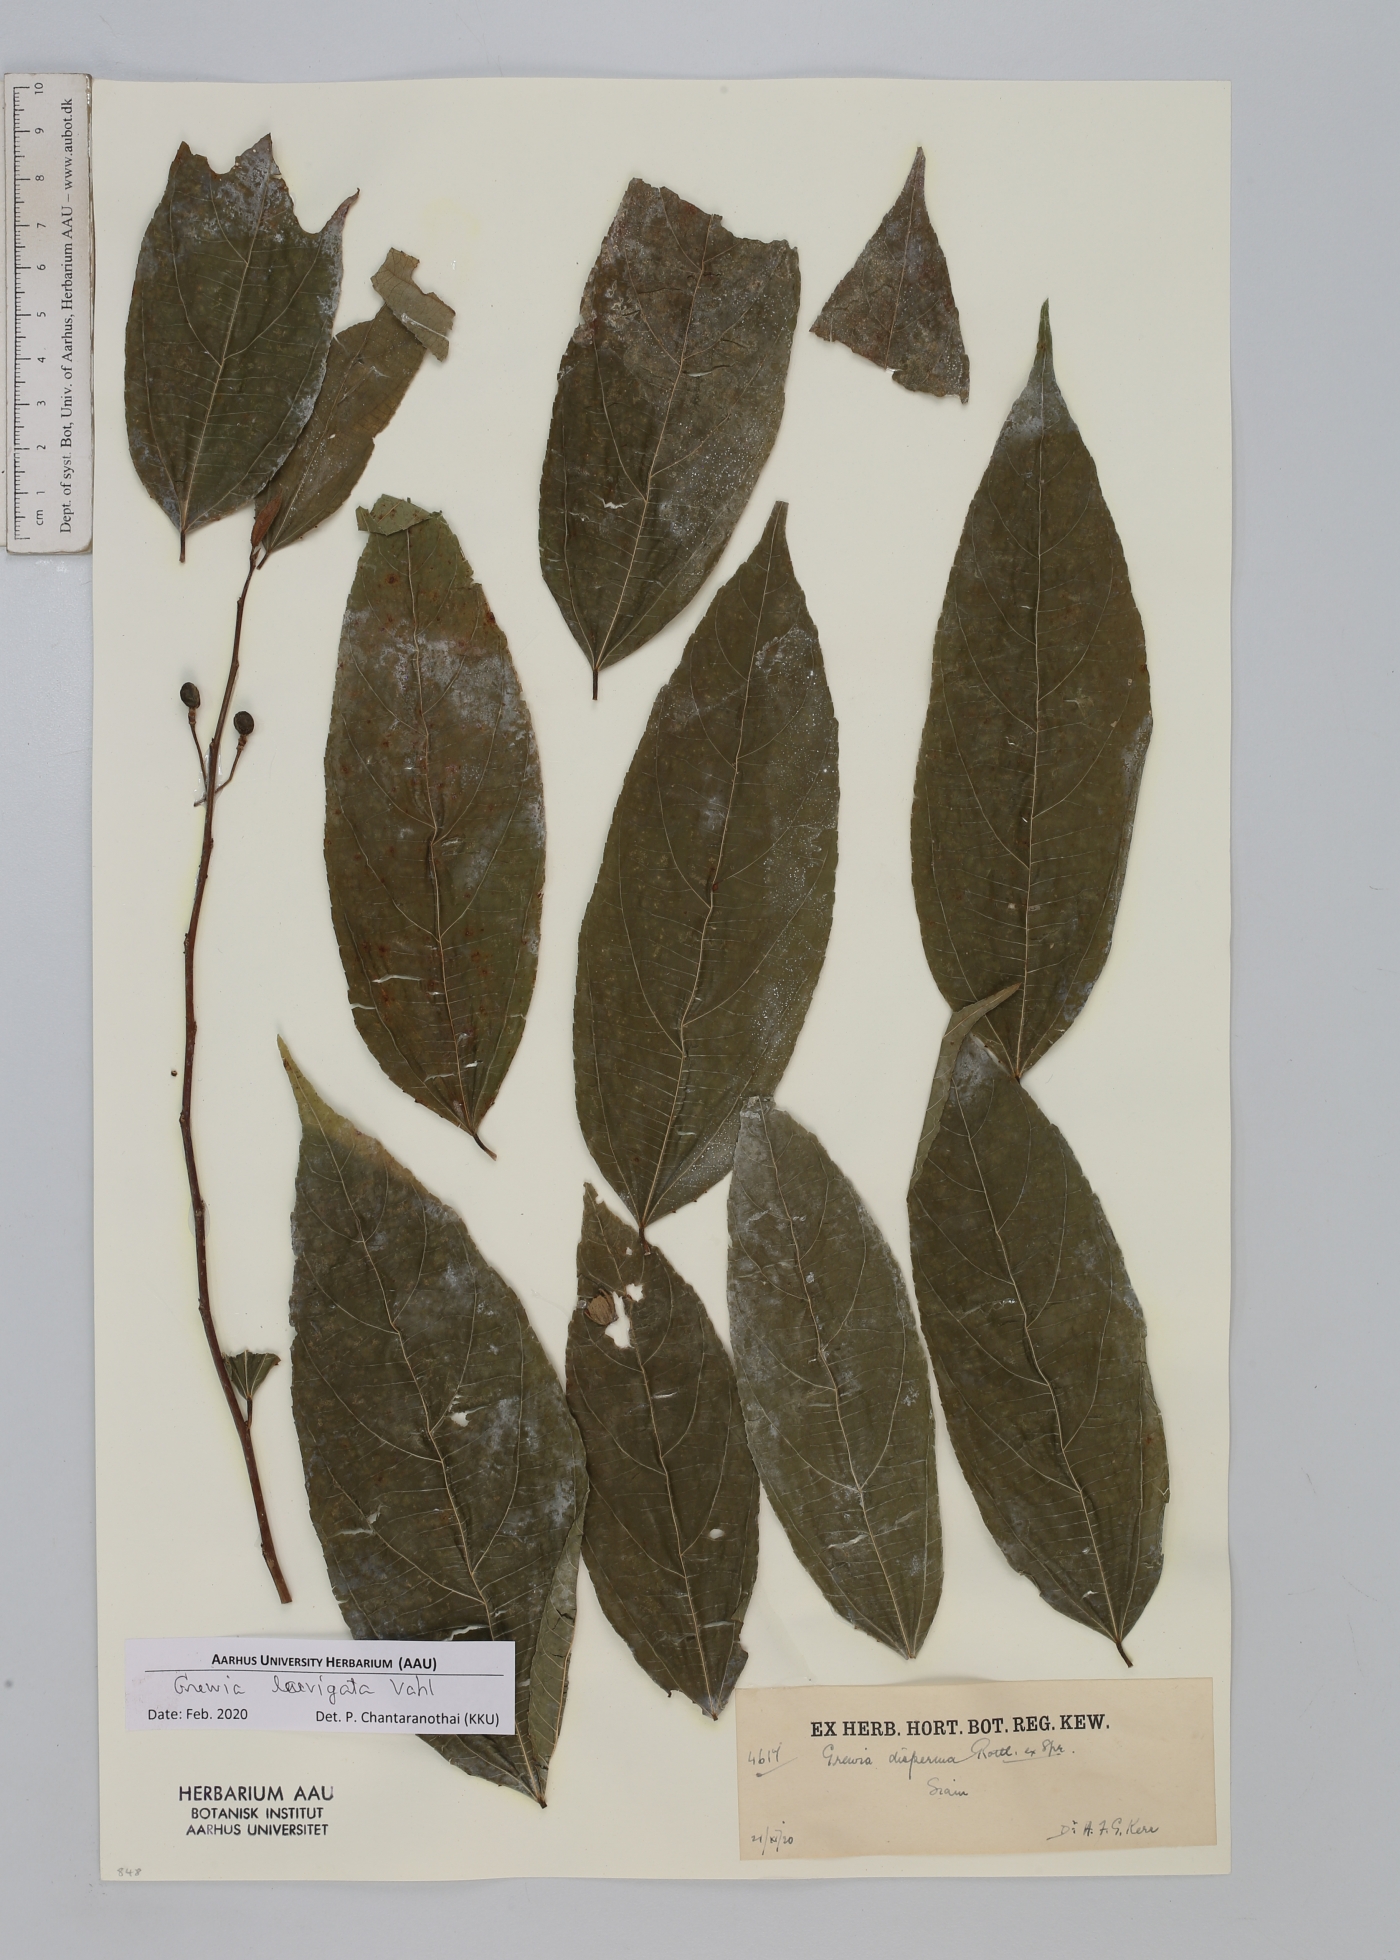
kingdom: Plantae
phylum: Tracheophyta
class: Magnoliopsida
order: Malvales
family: Malvaceae
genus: Grewia
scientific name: Grewia laevigata
